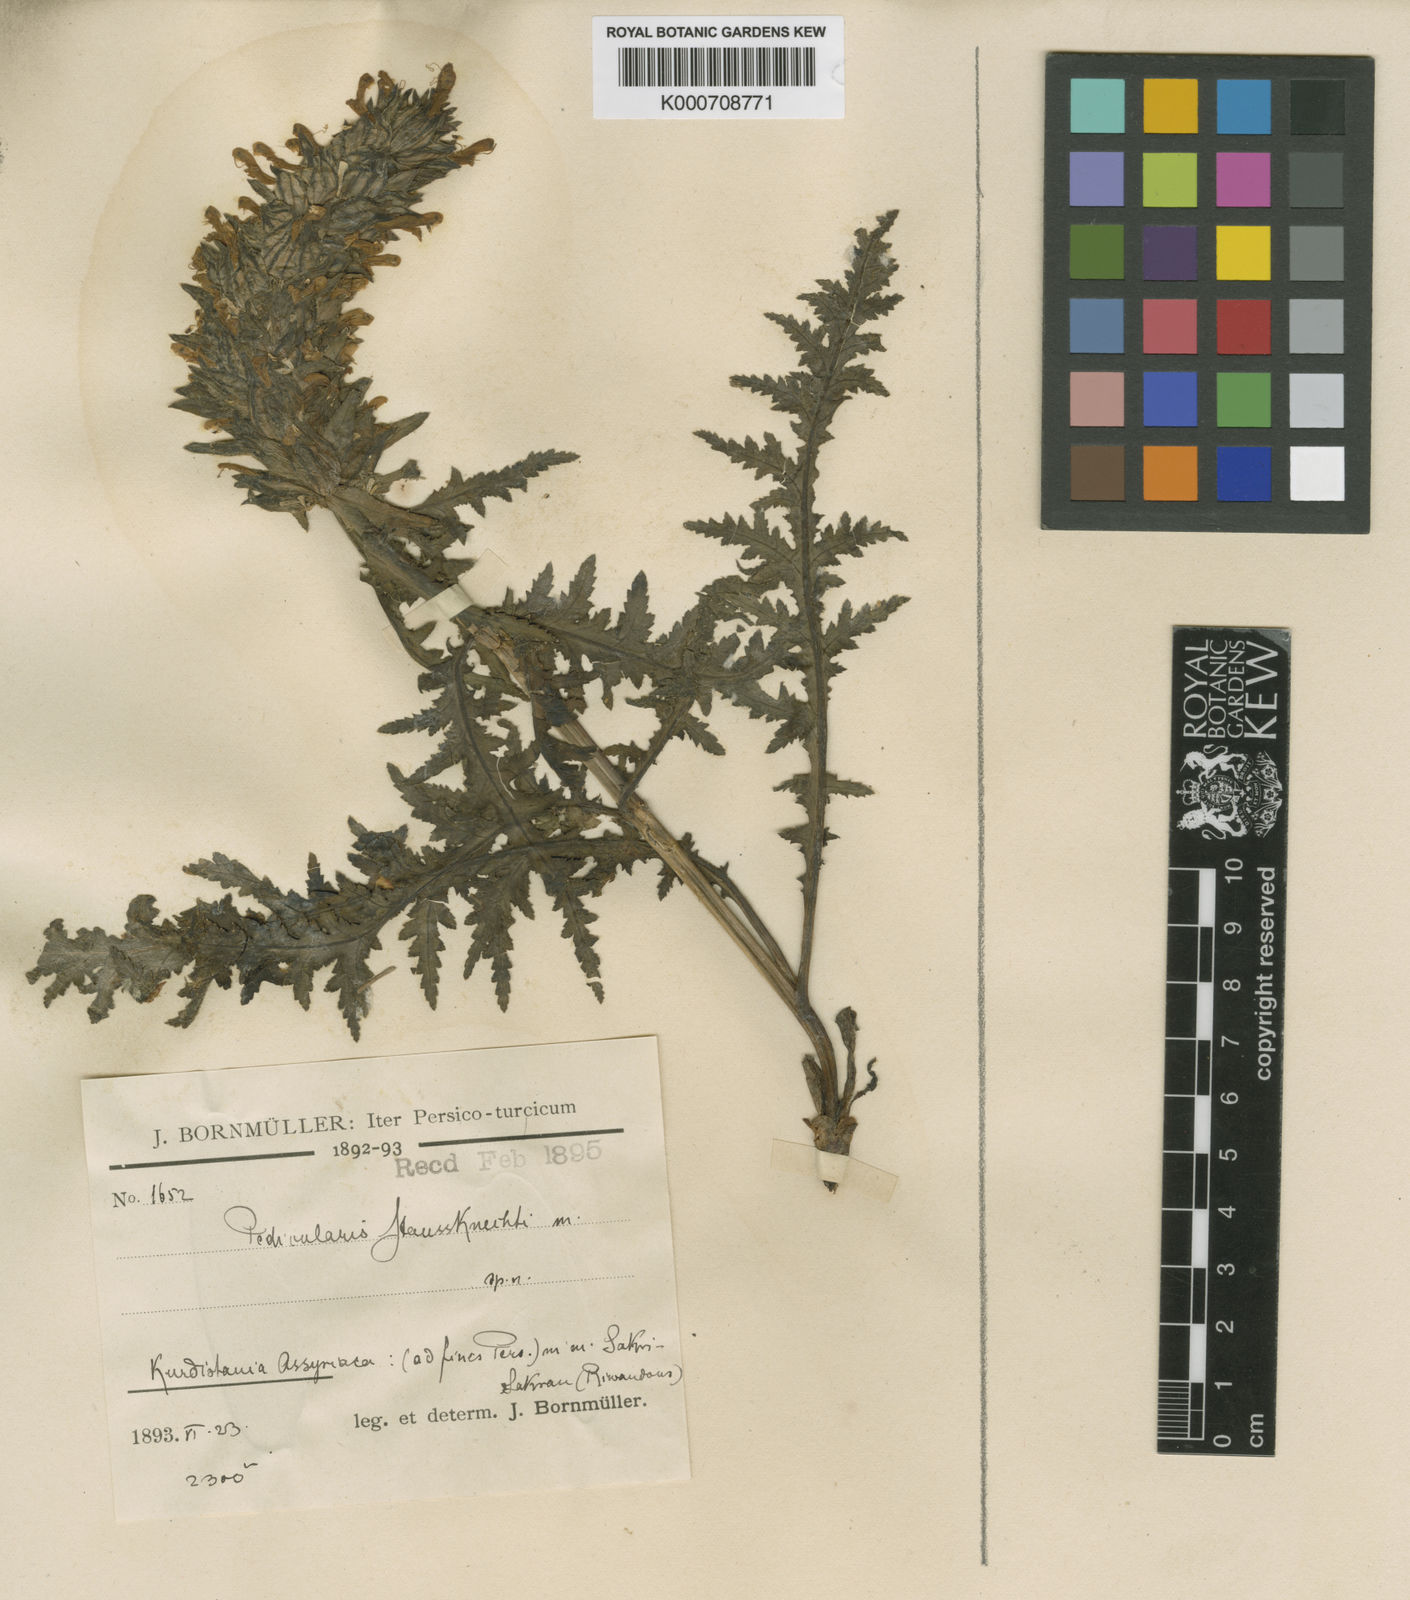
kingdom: Plantae
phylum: Tracheophyta
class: Magnoliopsida
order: Lamiales
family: Orobanchaceae
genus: Pedicularis
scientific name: Pedicularis
